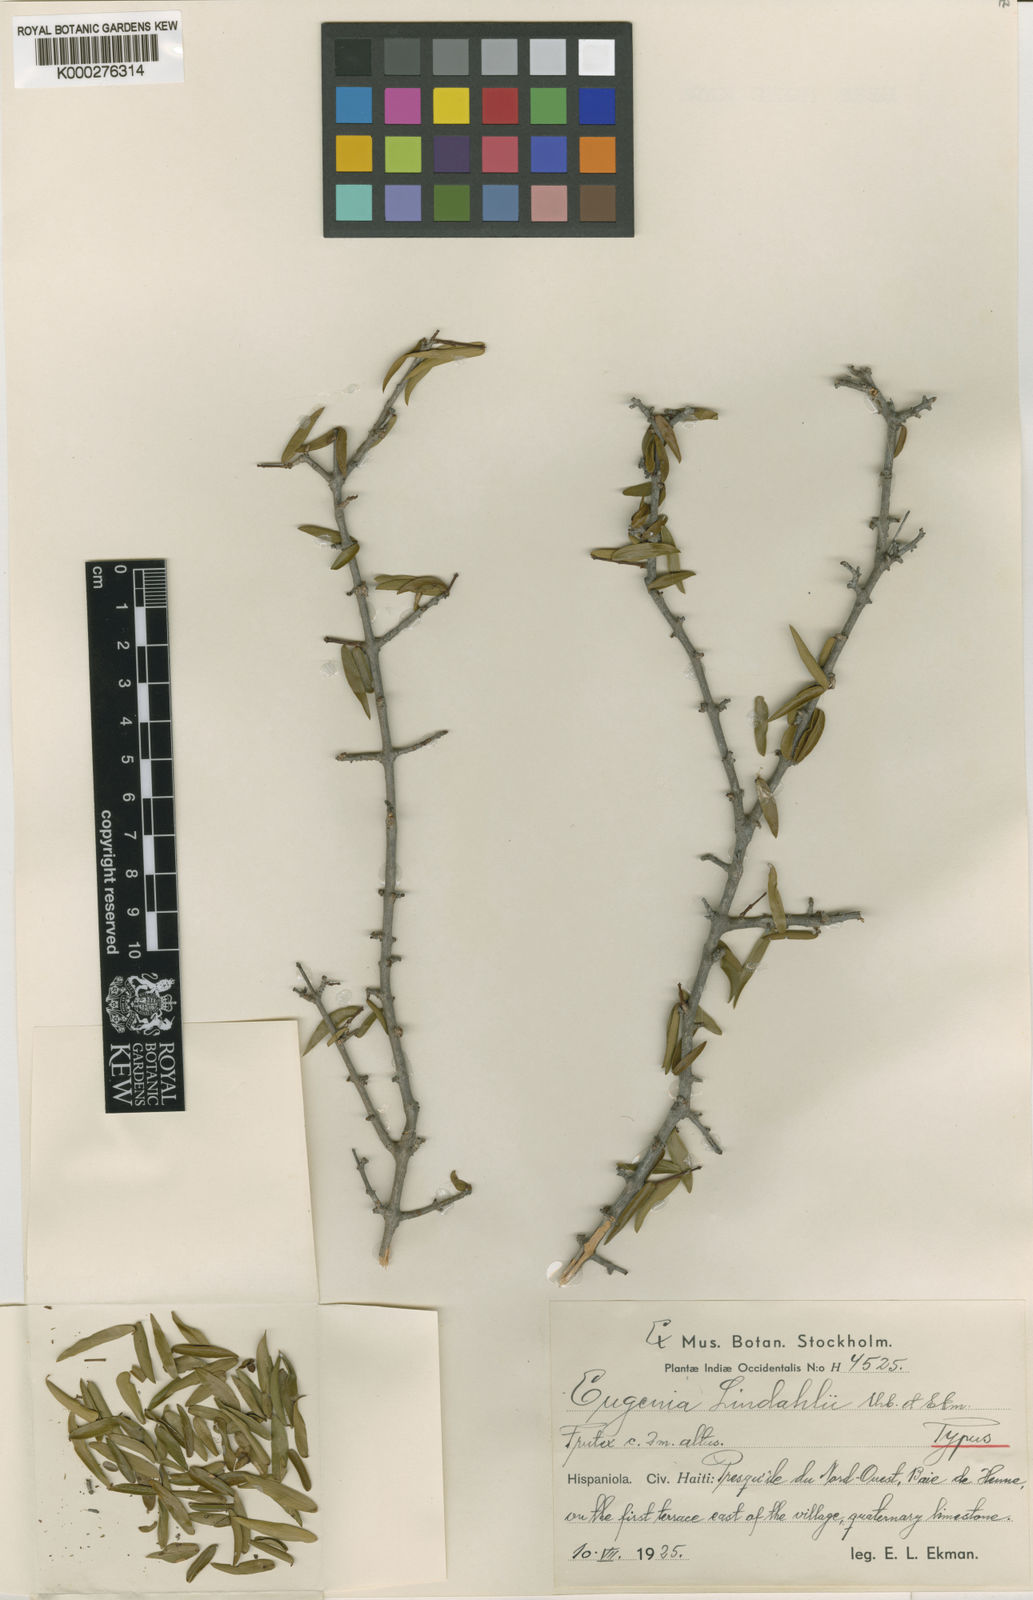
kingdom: Plantae
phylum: Tracheophyta
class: Magnoliopsida
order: Myrtales
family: Myrtaceae
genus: Eugenia
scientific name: Eugenia lindahlii
